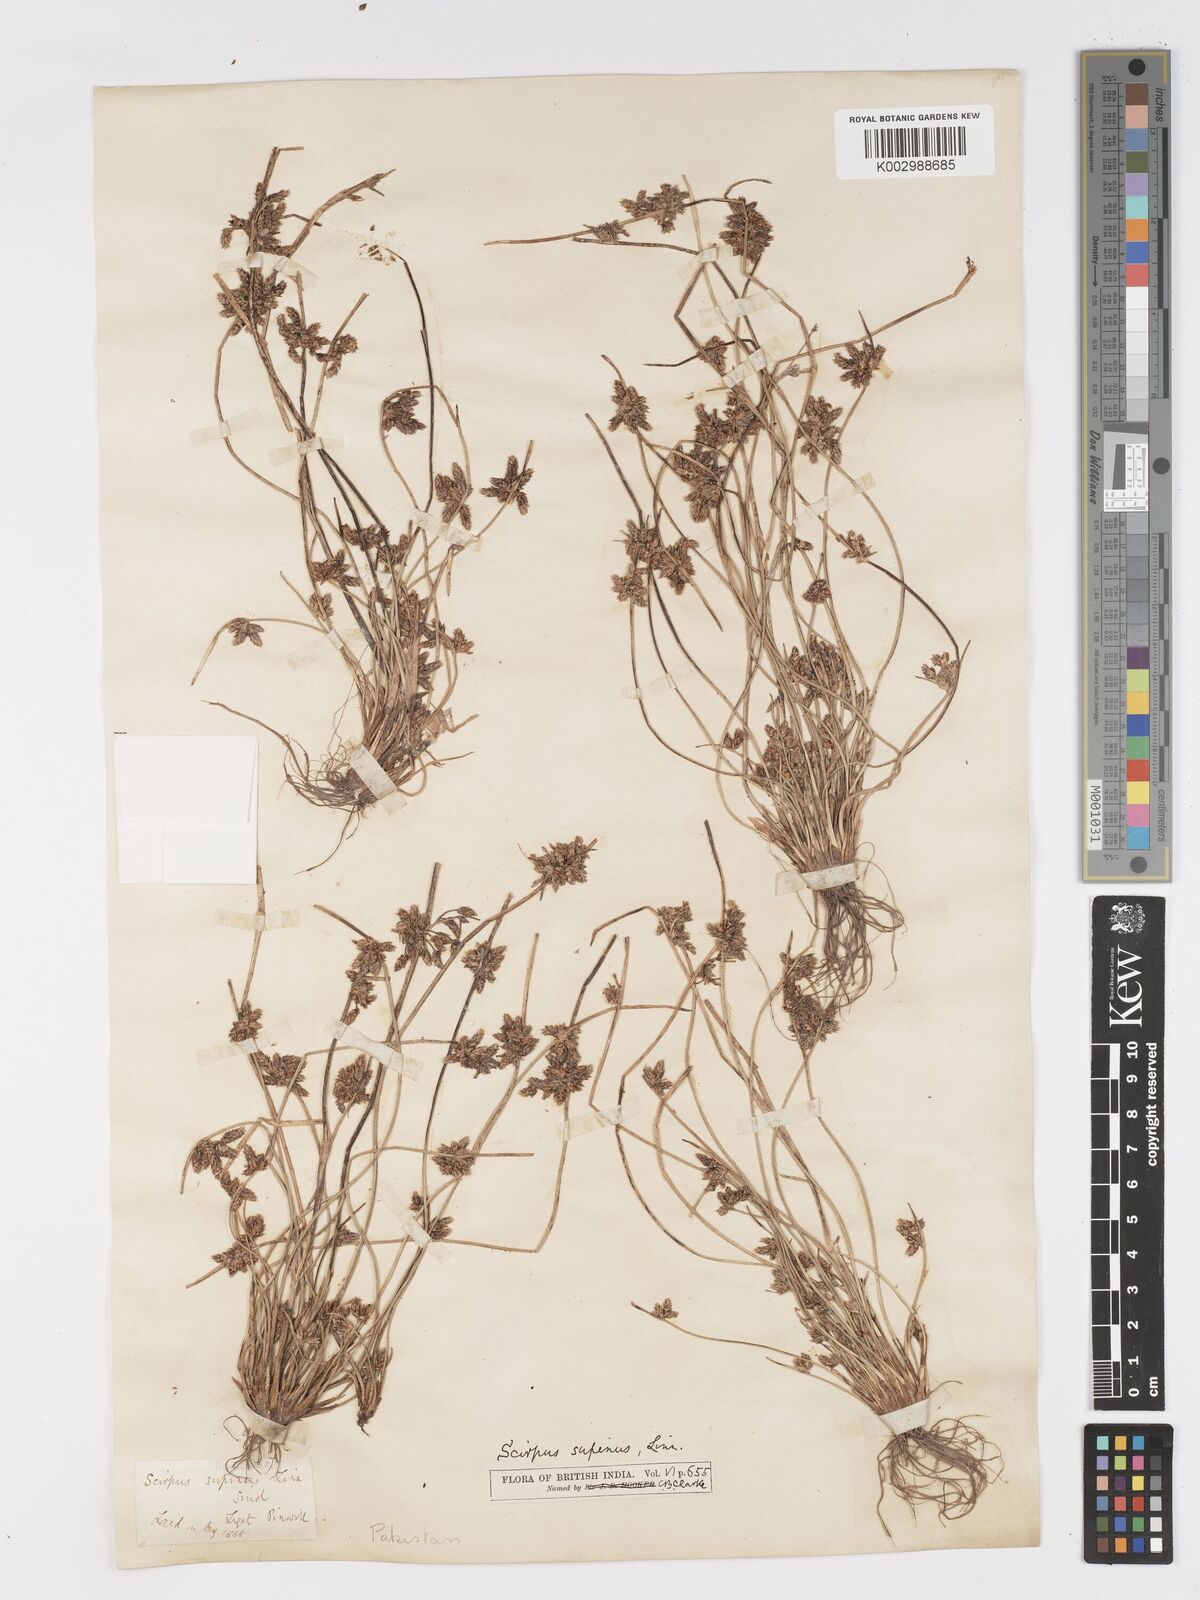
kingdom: Plantae
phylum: Tracheophyta
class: Liliopsida
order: Poales
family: Cyperaceae
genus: Schoenoplectiella
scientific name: Schoenoplectiella lateriflora
